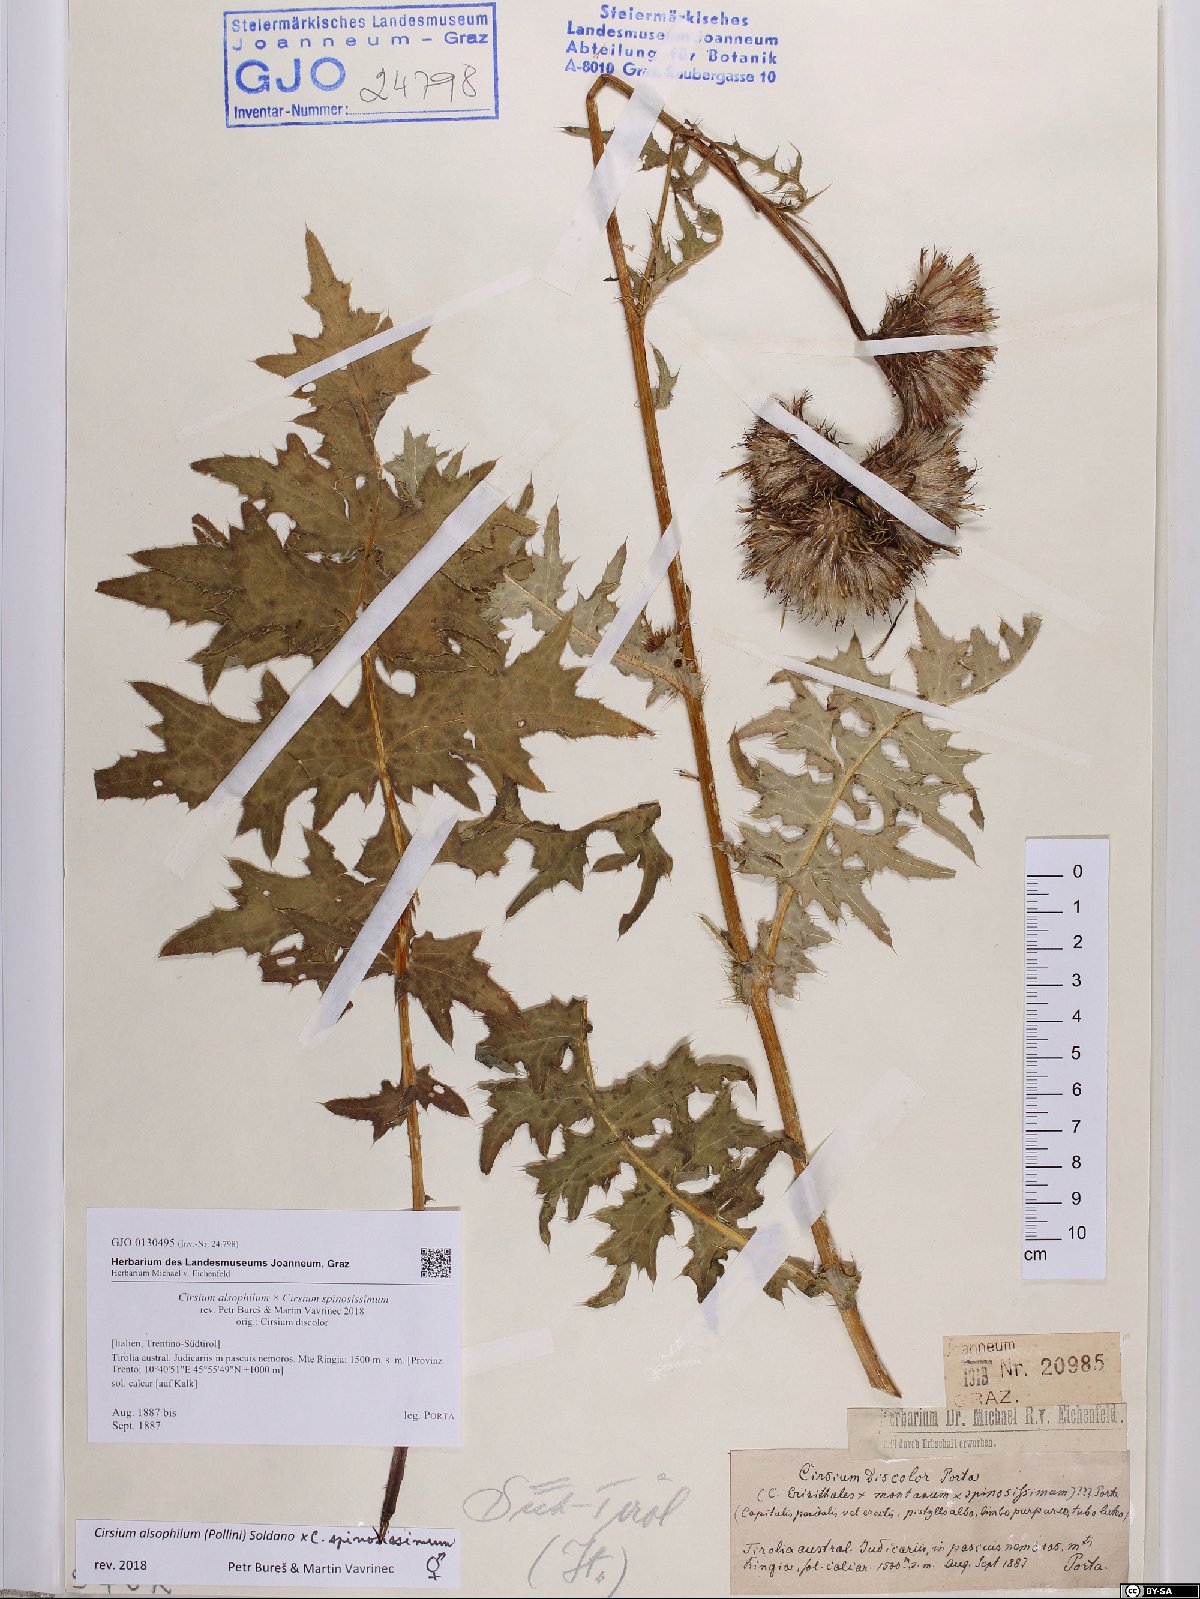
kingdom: Plantae
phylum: Tracheophyta
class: Magnoliopsida
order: Asterales
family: Asteraceae
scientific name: Asteraceae
